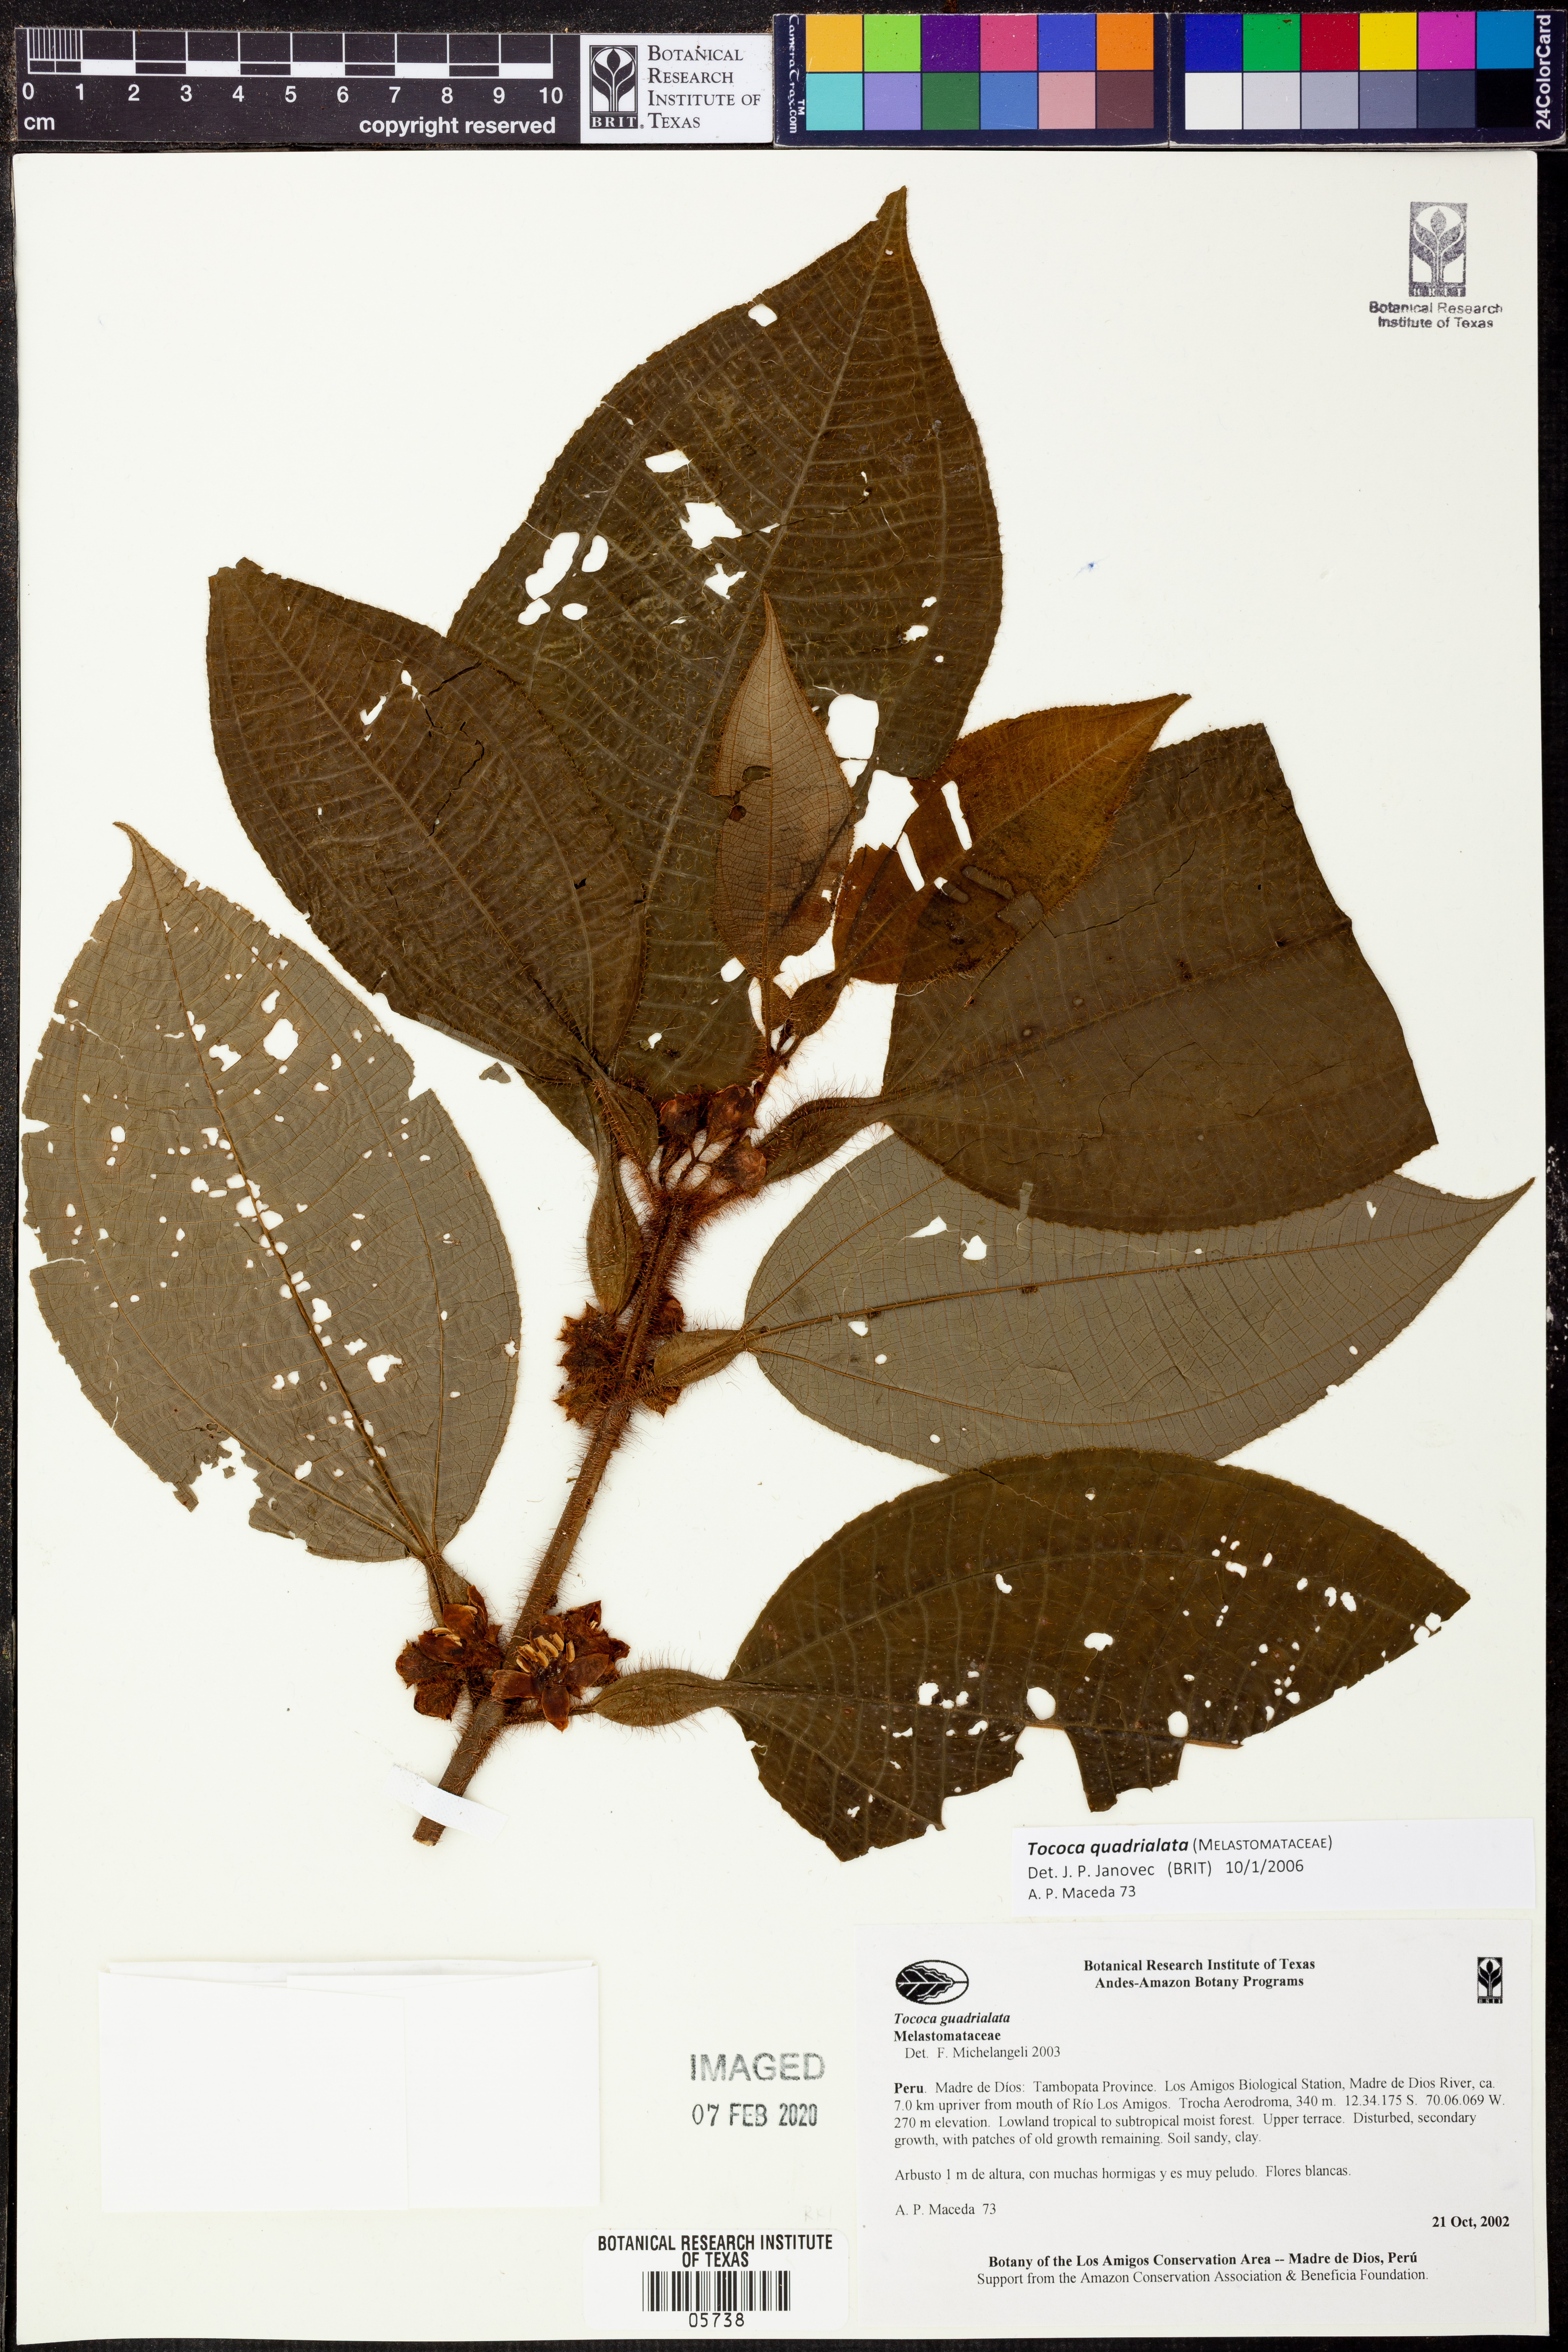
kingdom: Plantae
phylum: Tracheophyta
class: Magnoliopsida
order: Myrtales
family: Melastomataceae
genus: Miconia
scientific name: Miconia microphysca
